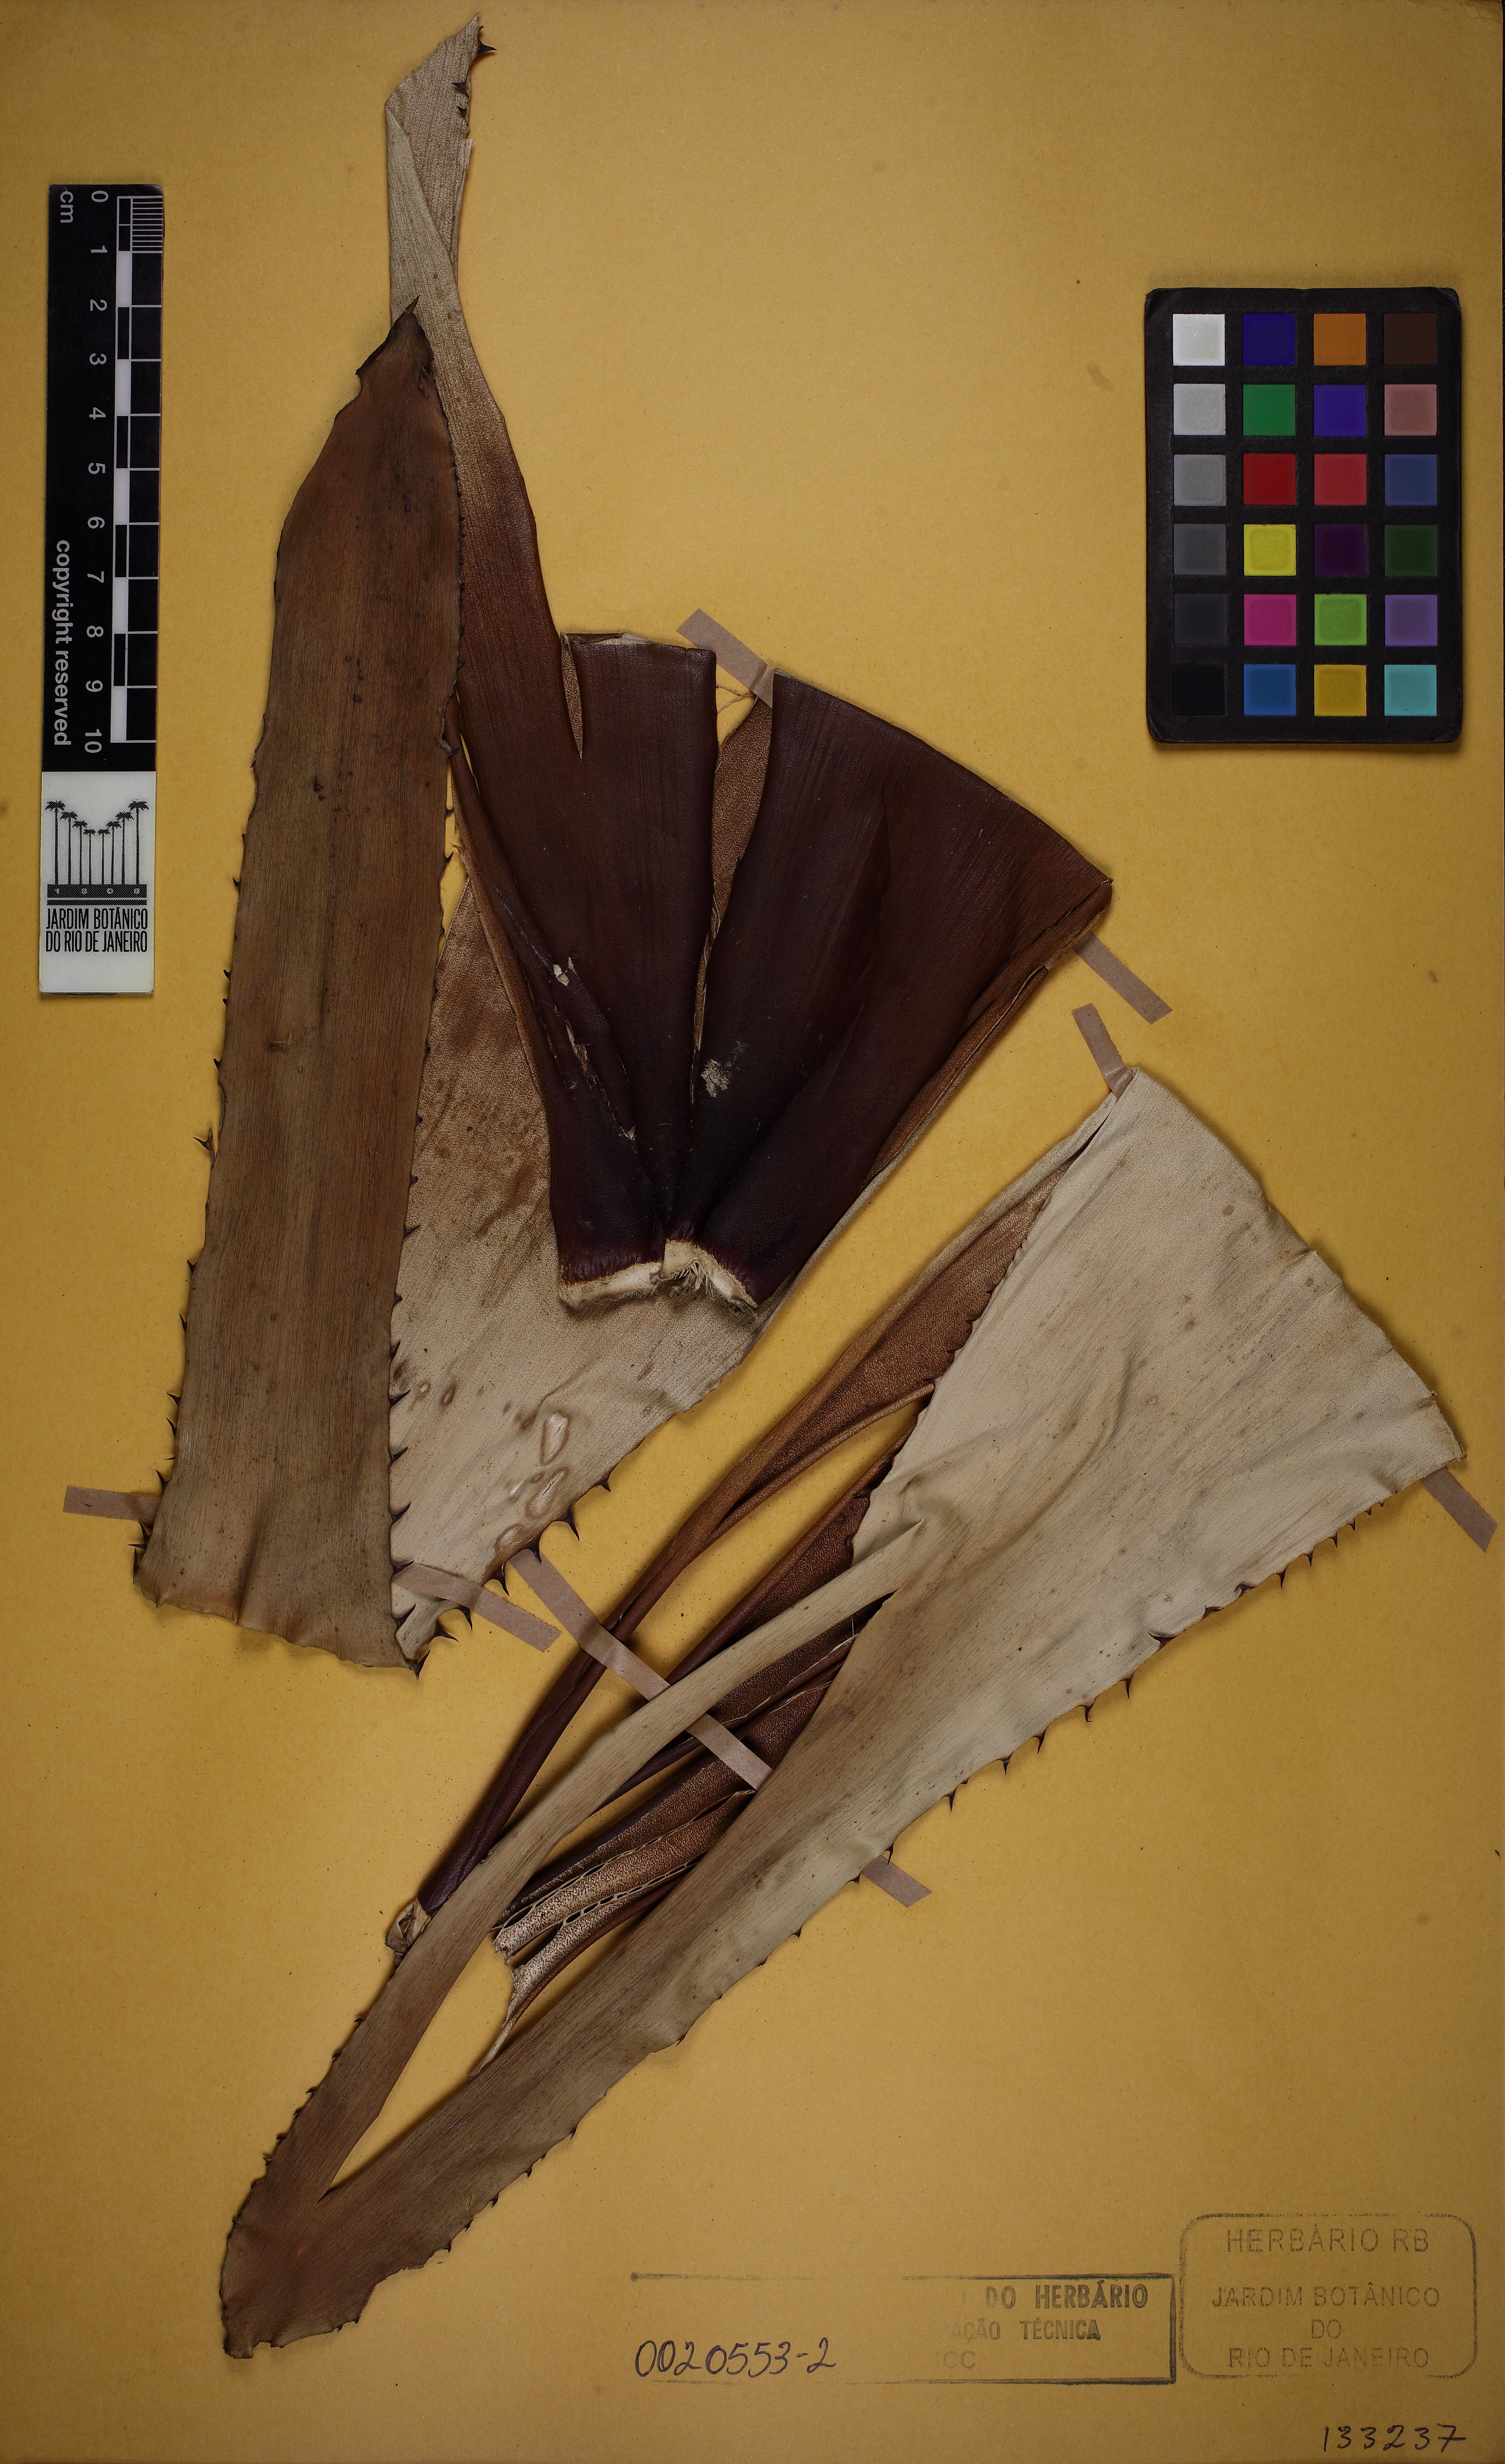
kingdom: Plantae
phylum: Tracheophyta
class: Liliopsida
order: Poales
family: Bromeliaceae
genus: Portea
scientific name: Portea
